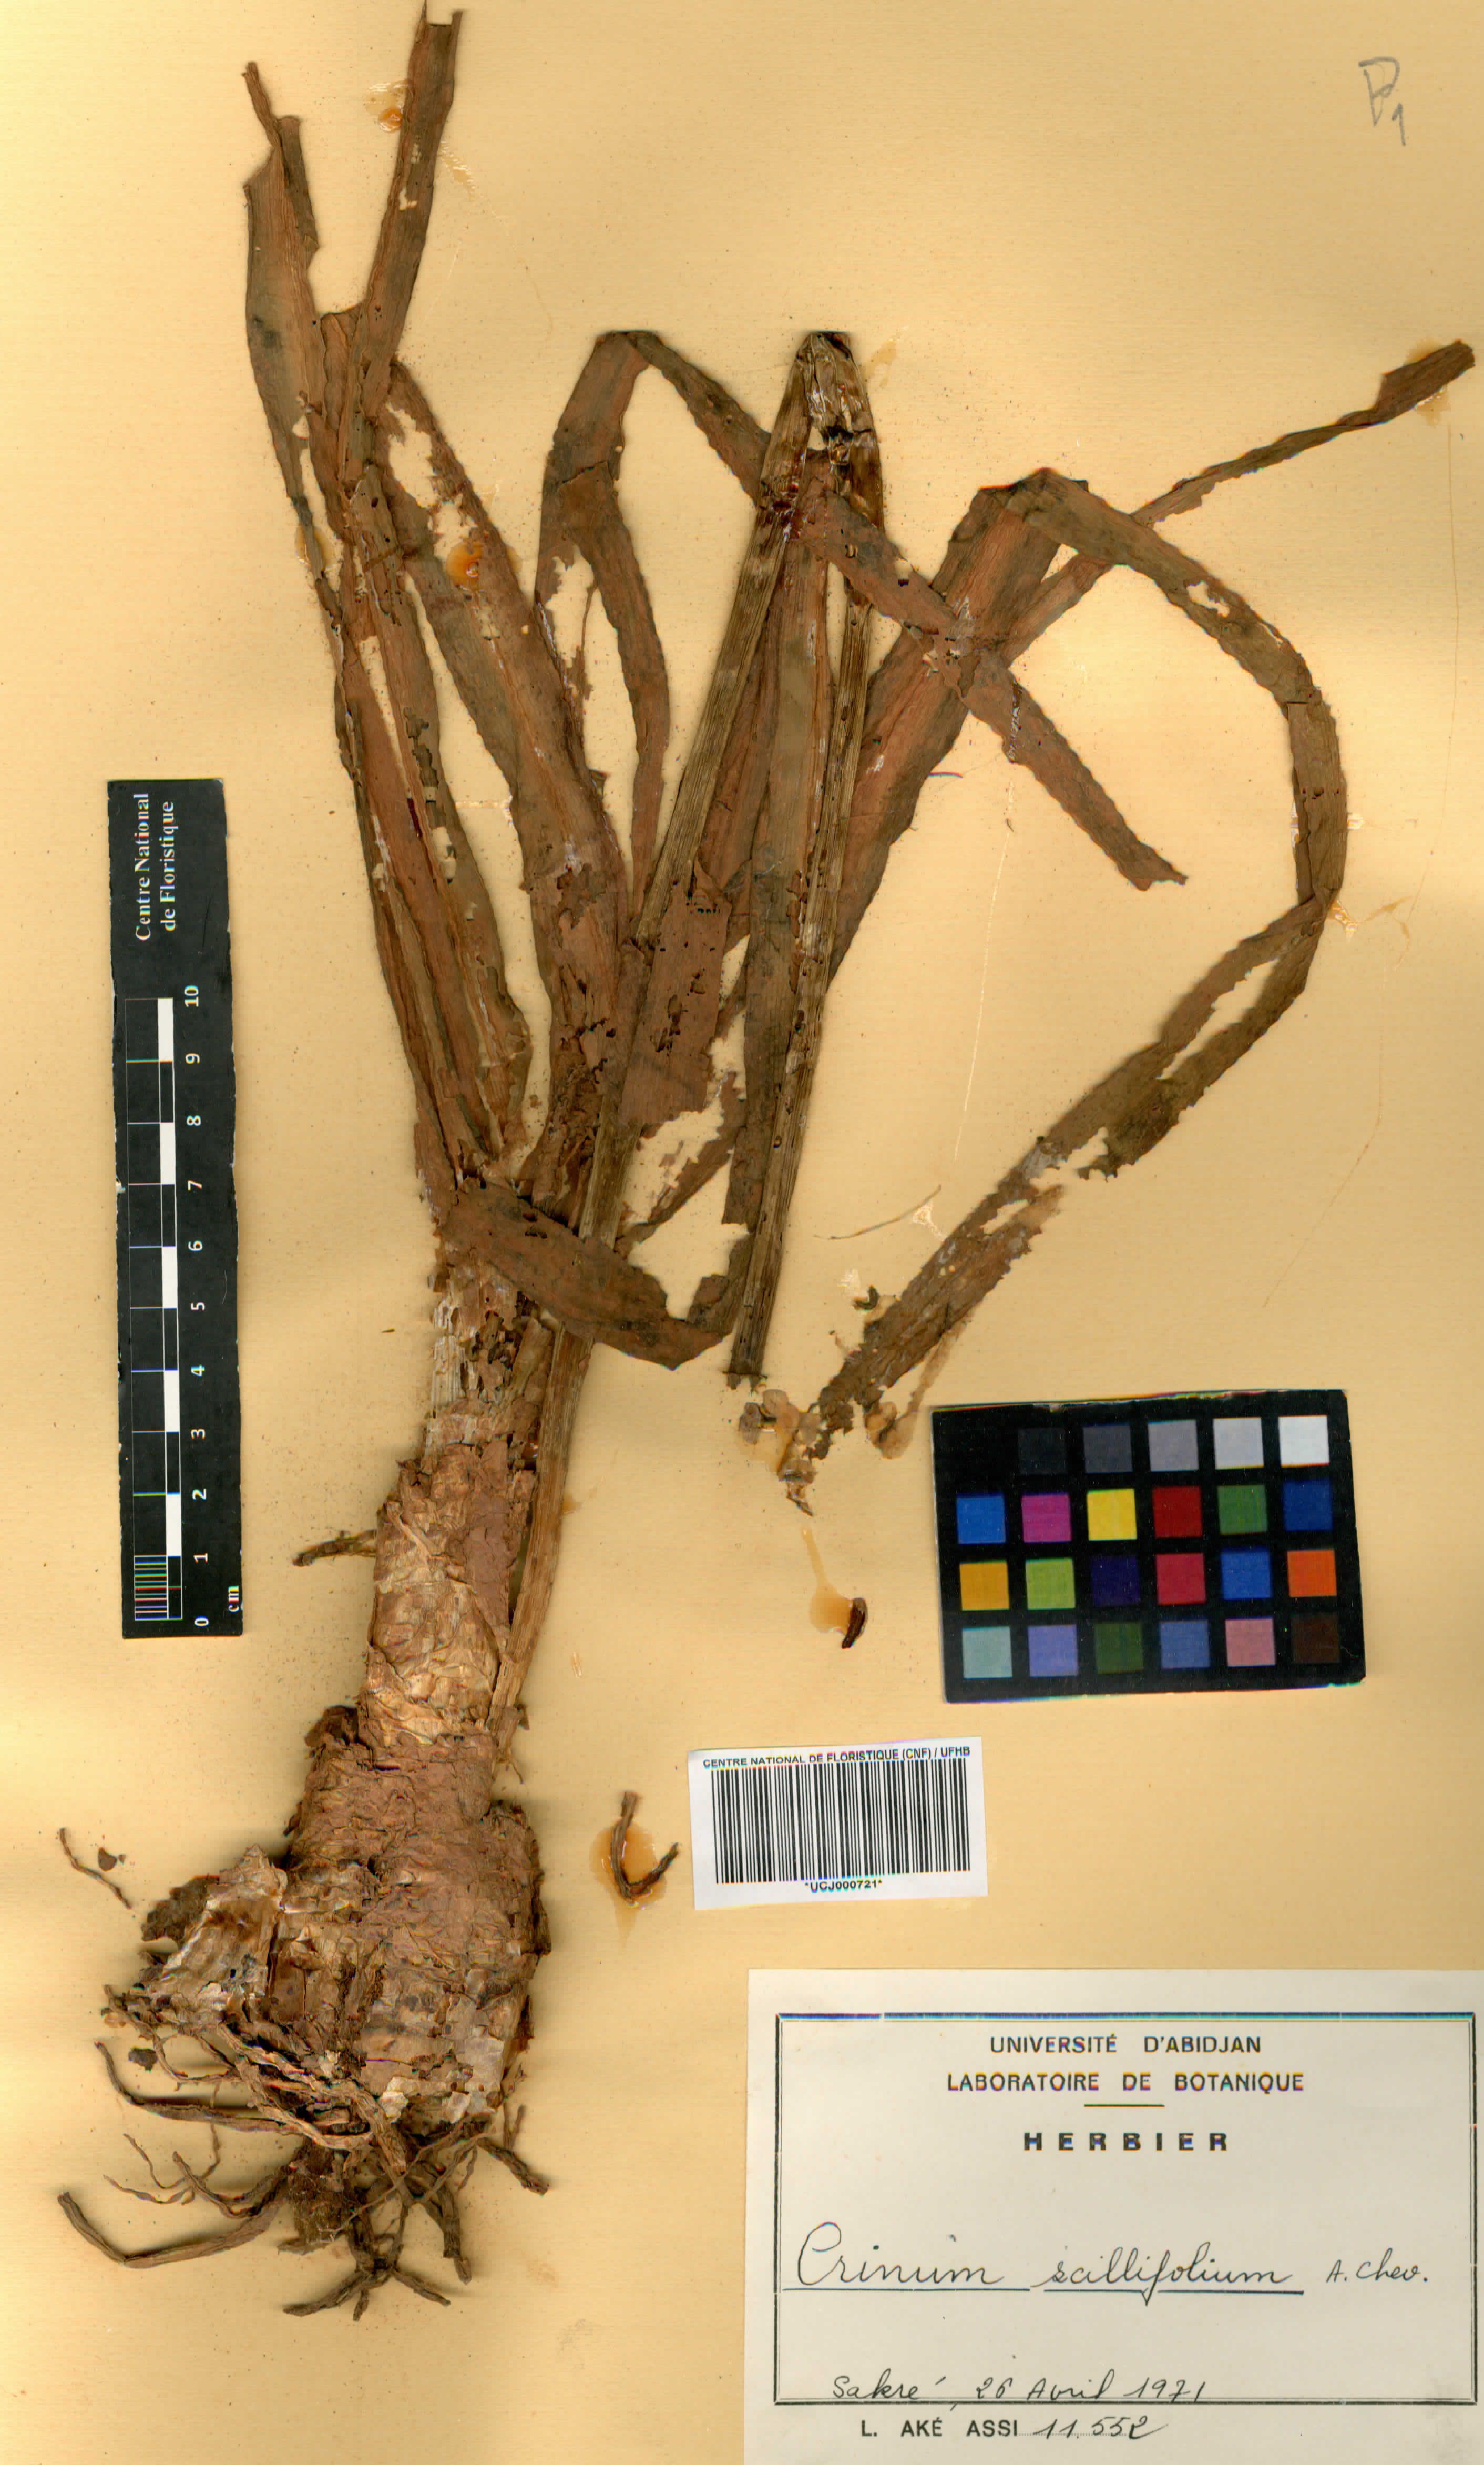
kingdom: Plantae
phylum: Tracheophyta
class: Liliopsida
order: Asparagales
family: Amaryllidaceae
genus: Crinum
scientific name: Crinum scillifolium
